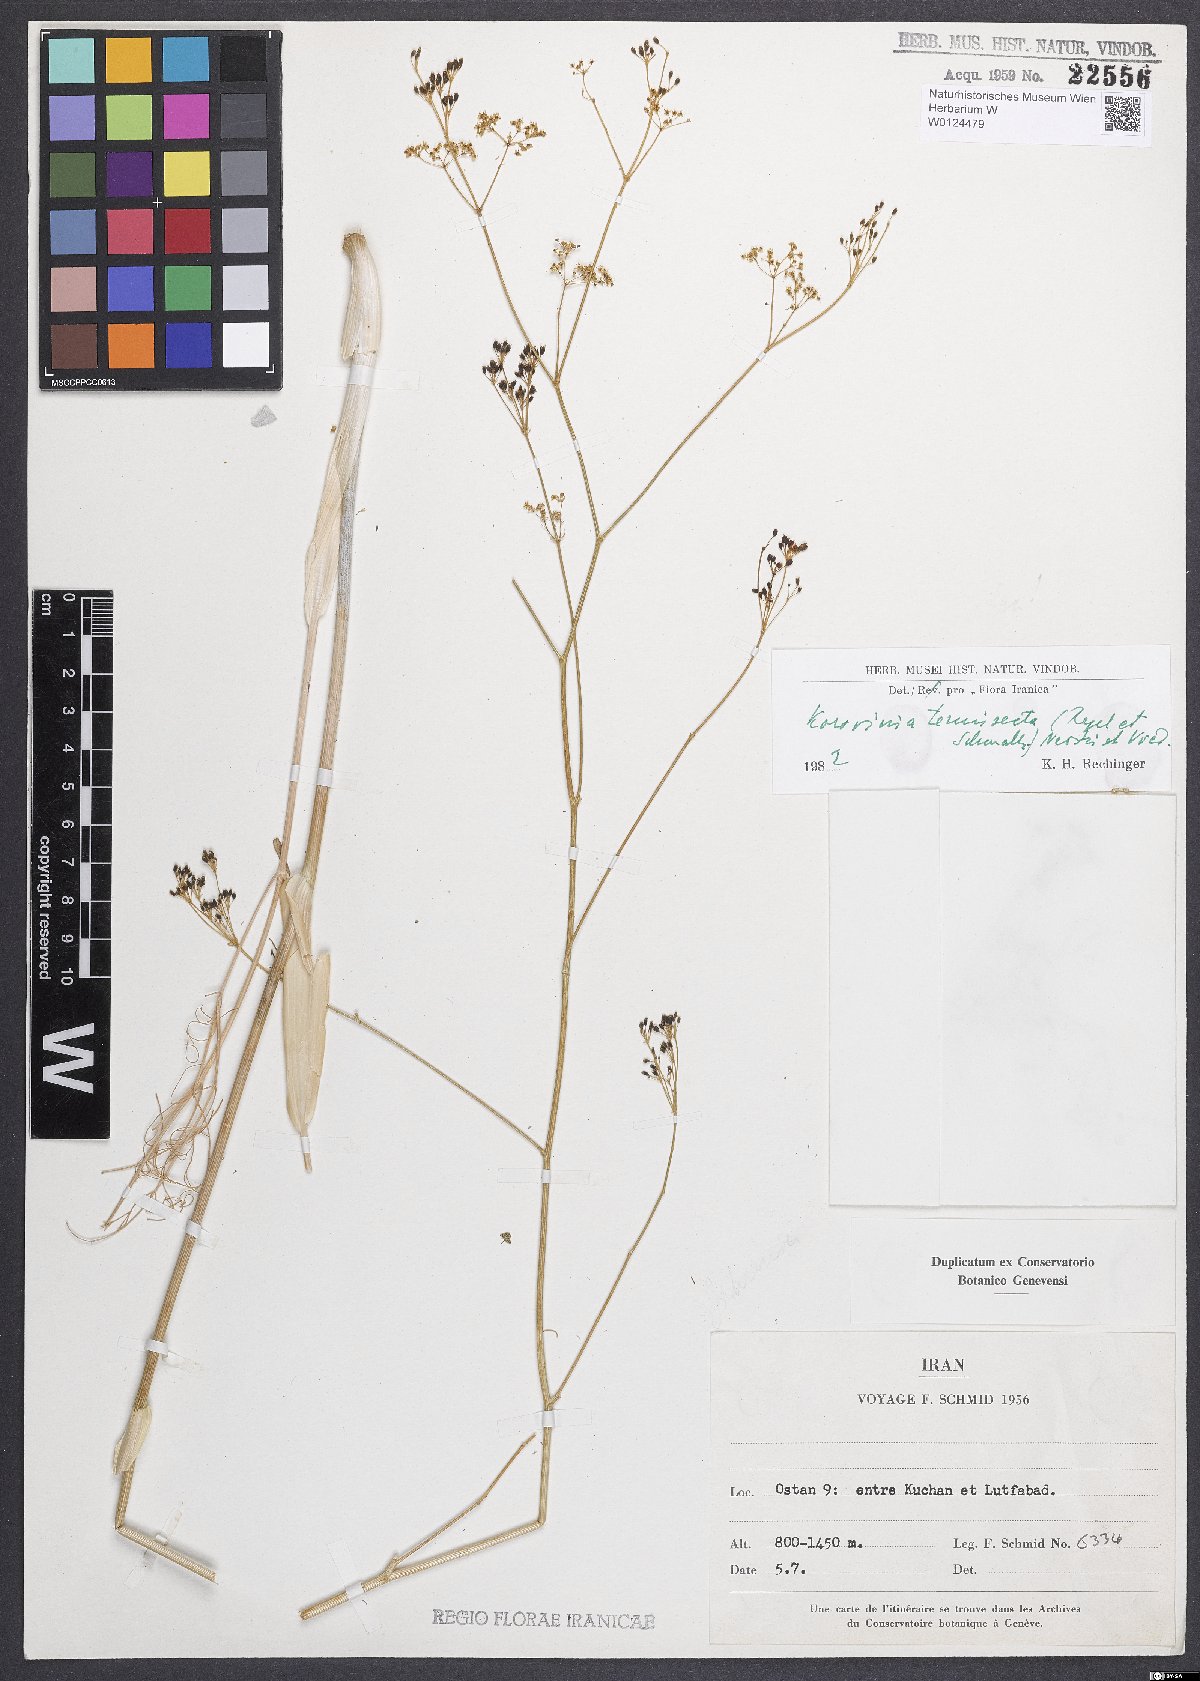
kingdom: Plantae
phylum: Tracheophyta
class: Magnoliopsida
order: Apiales
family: Apiaceae
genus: Galagania
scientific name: Galagania tenuisecta
